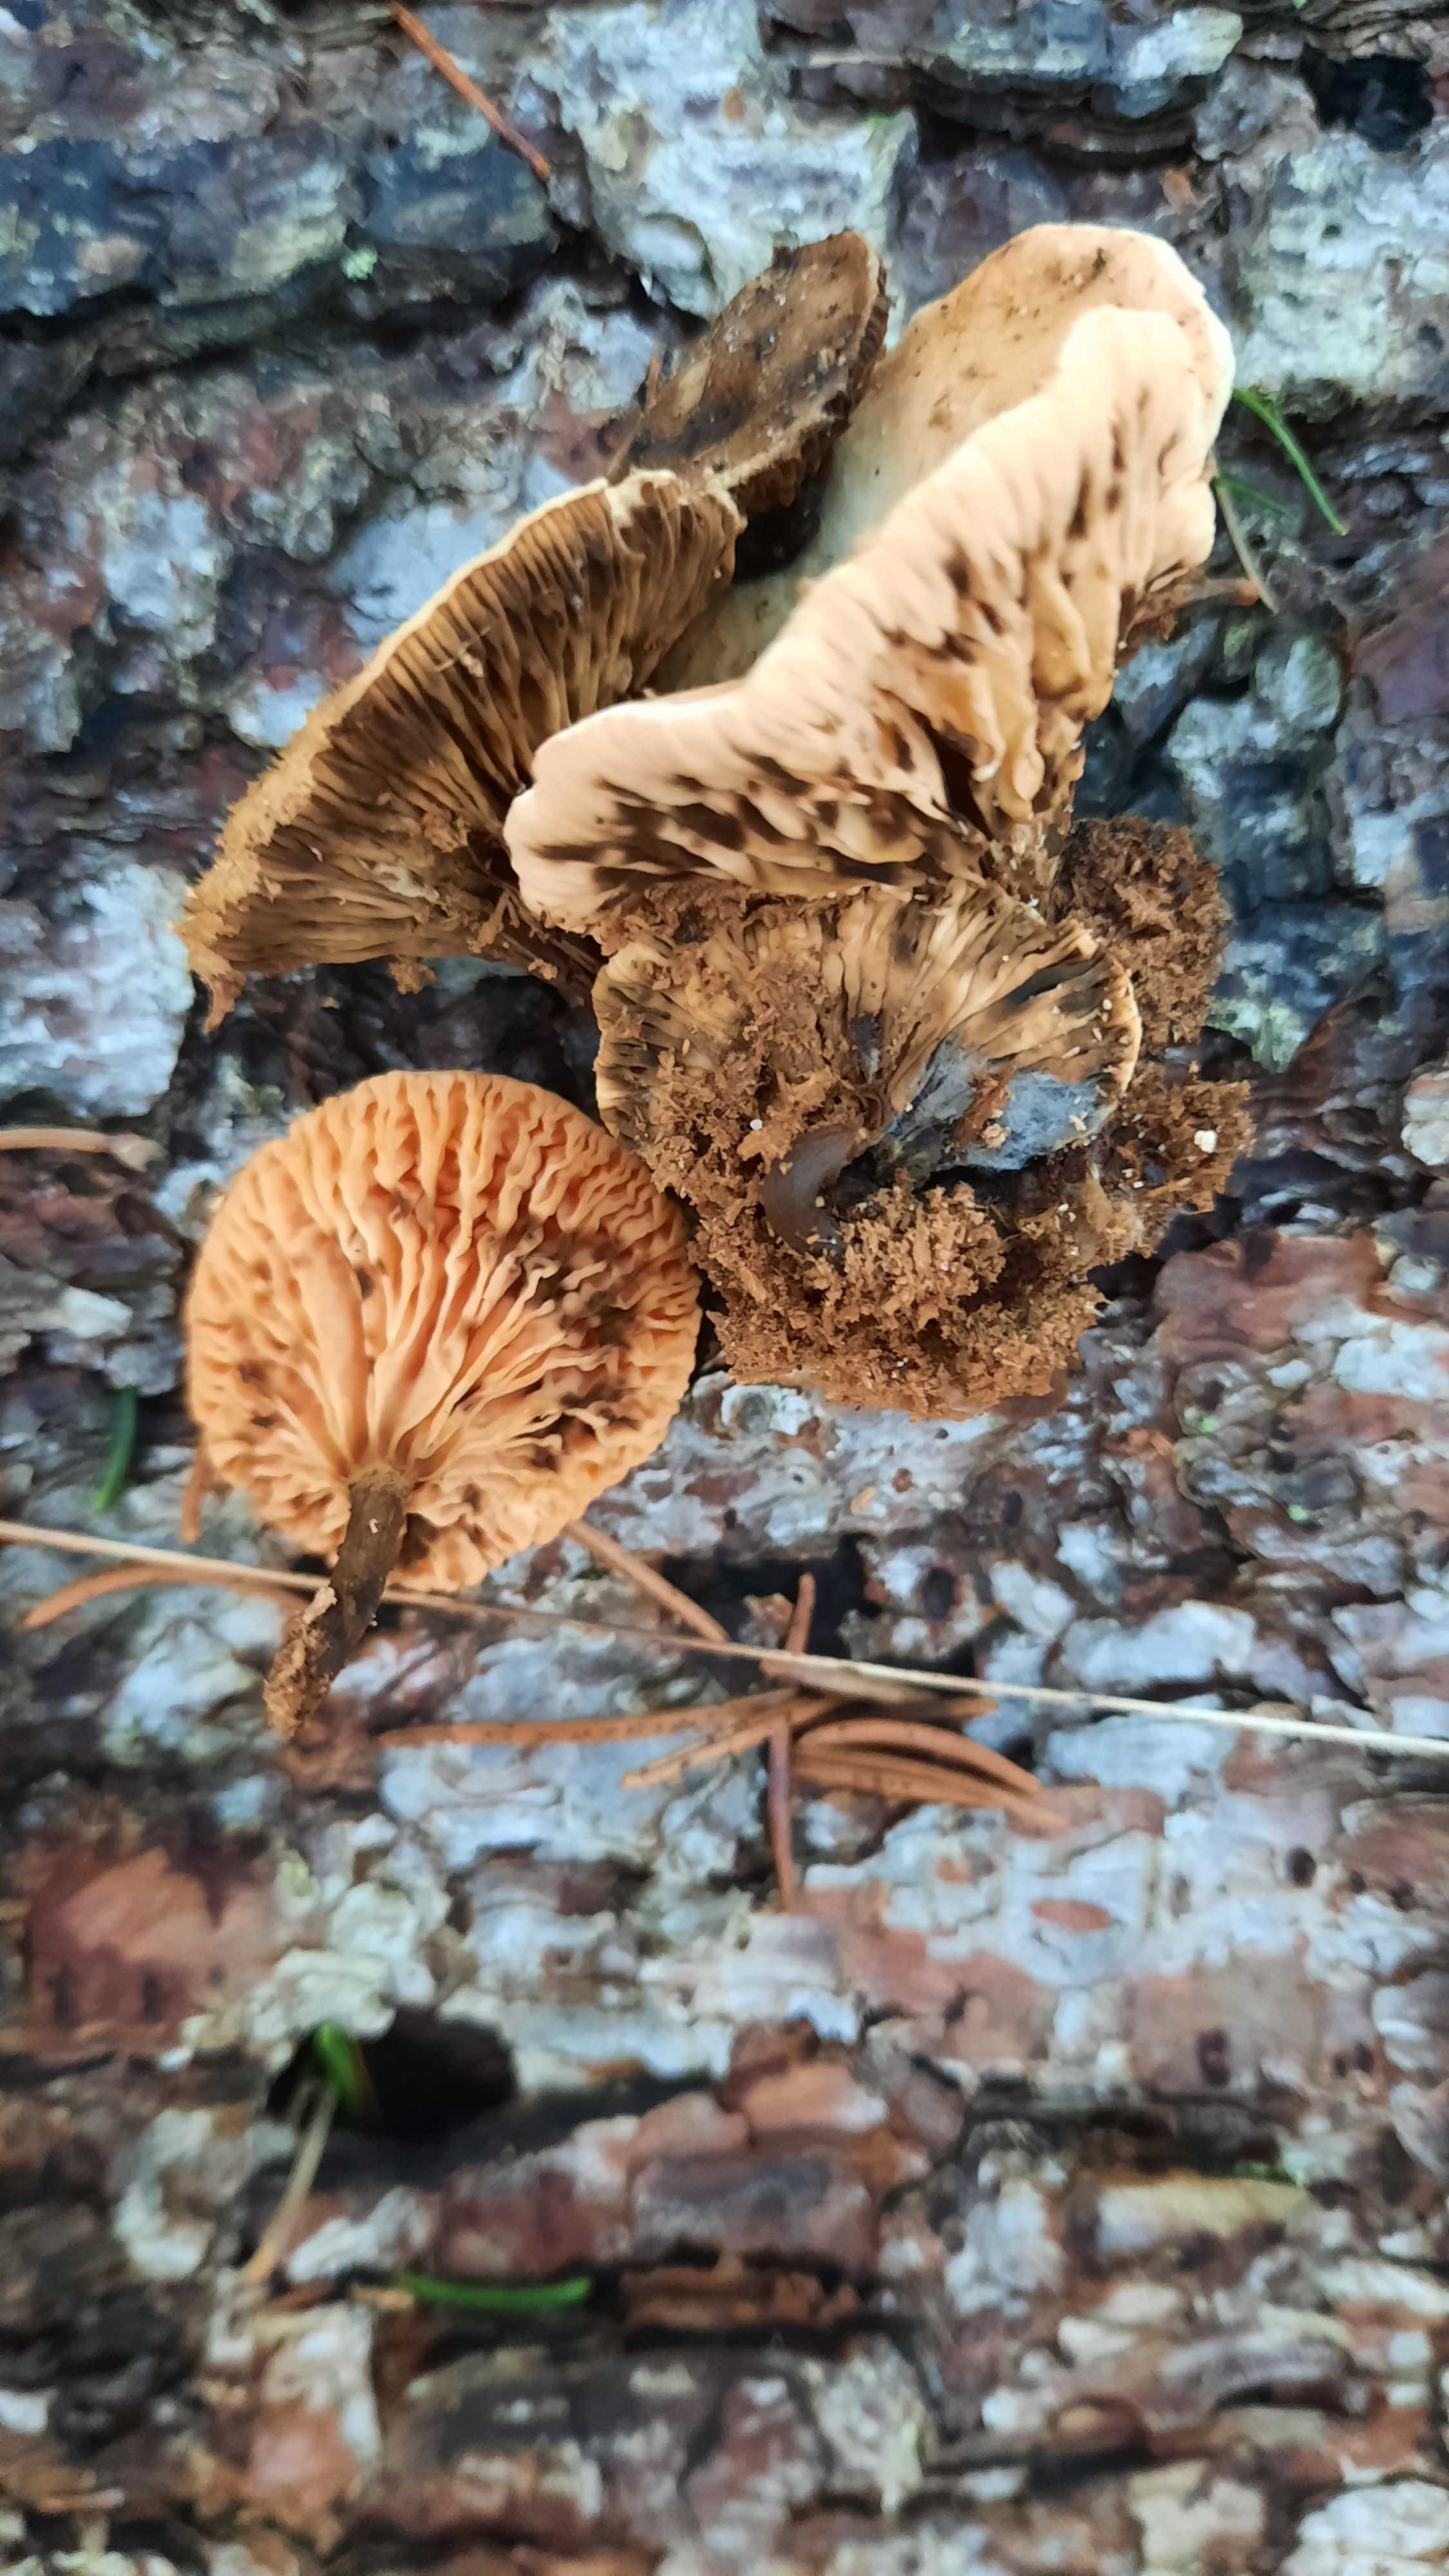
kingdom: Fungi
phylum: Basidiomycota
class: Agaricomycetes
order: Boletales
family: Hygrophoropsidaceae
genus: Hygrophoropsis
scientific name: Hygrophoropsis aurantiaca
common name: almindelig orangekantarel
